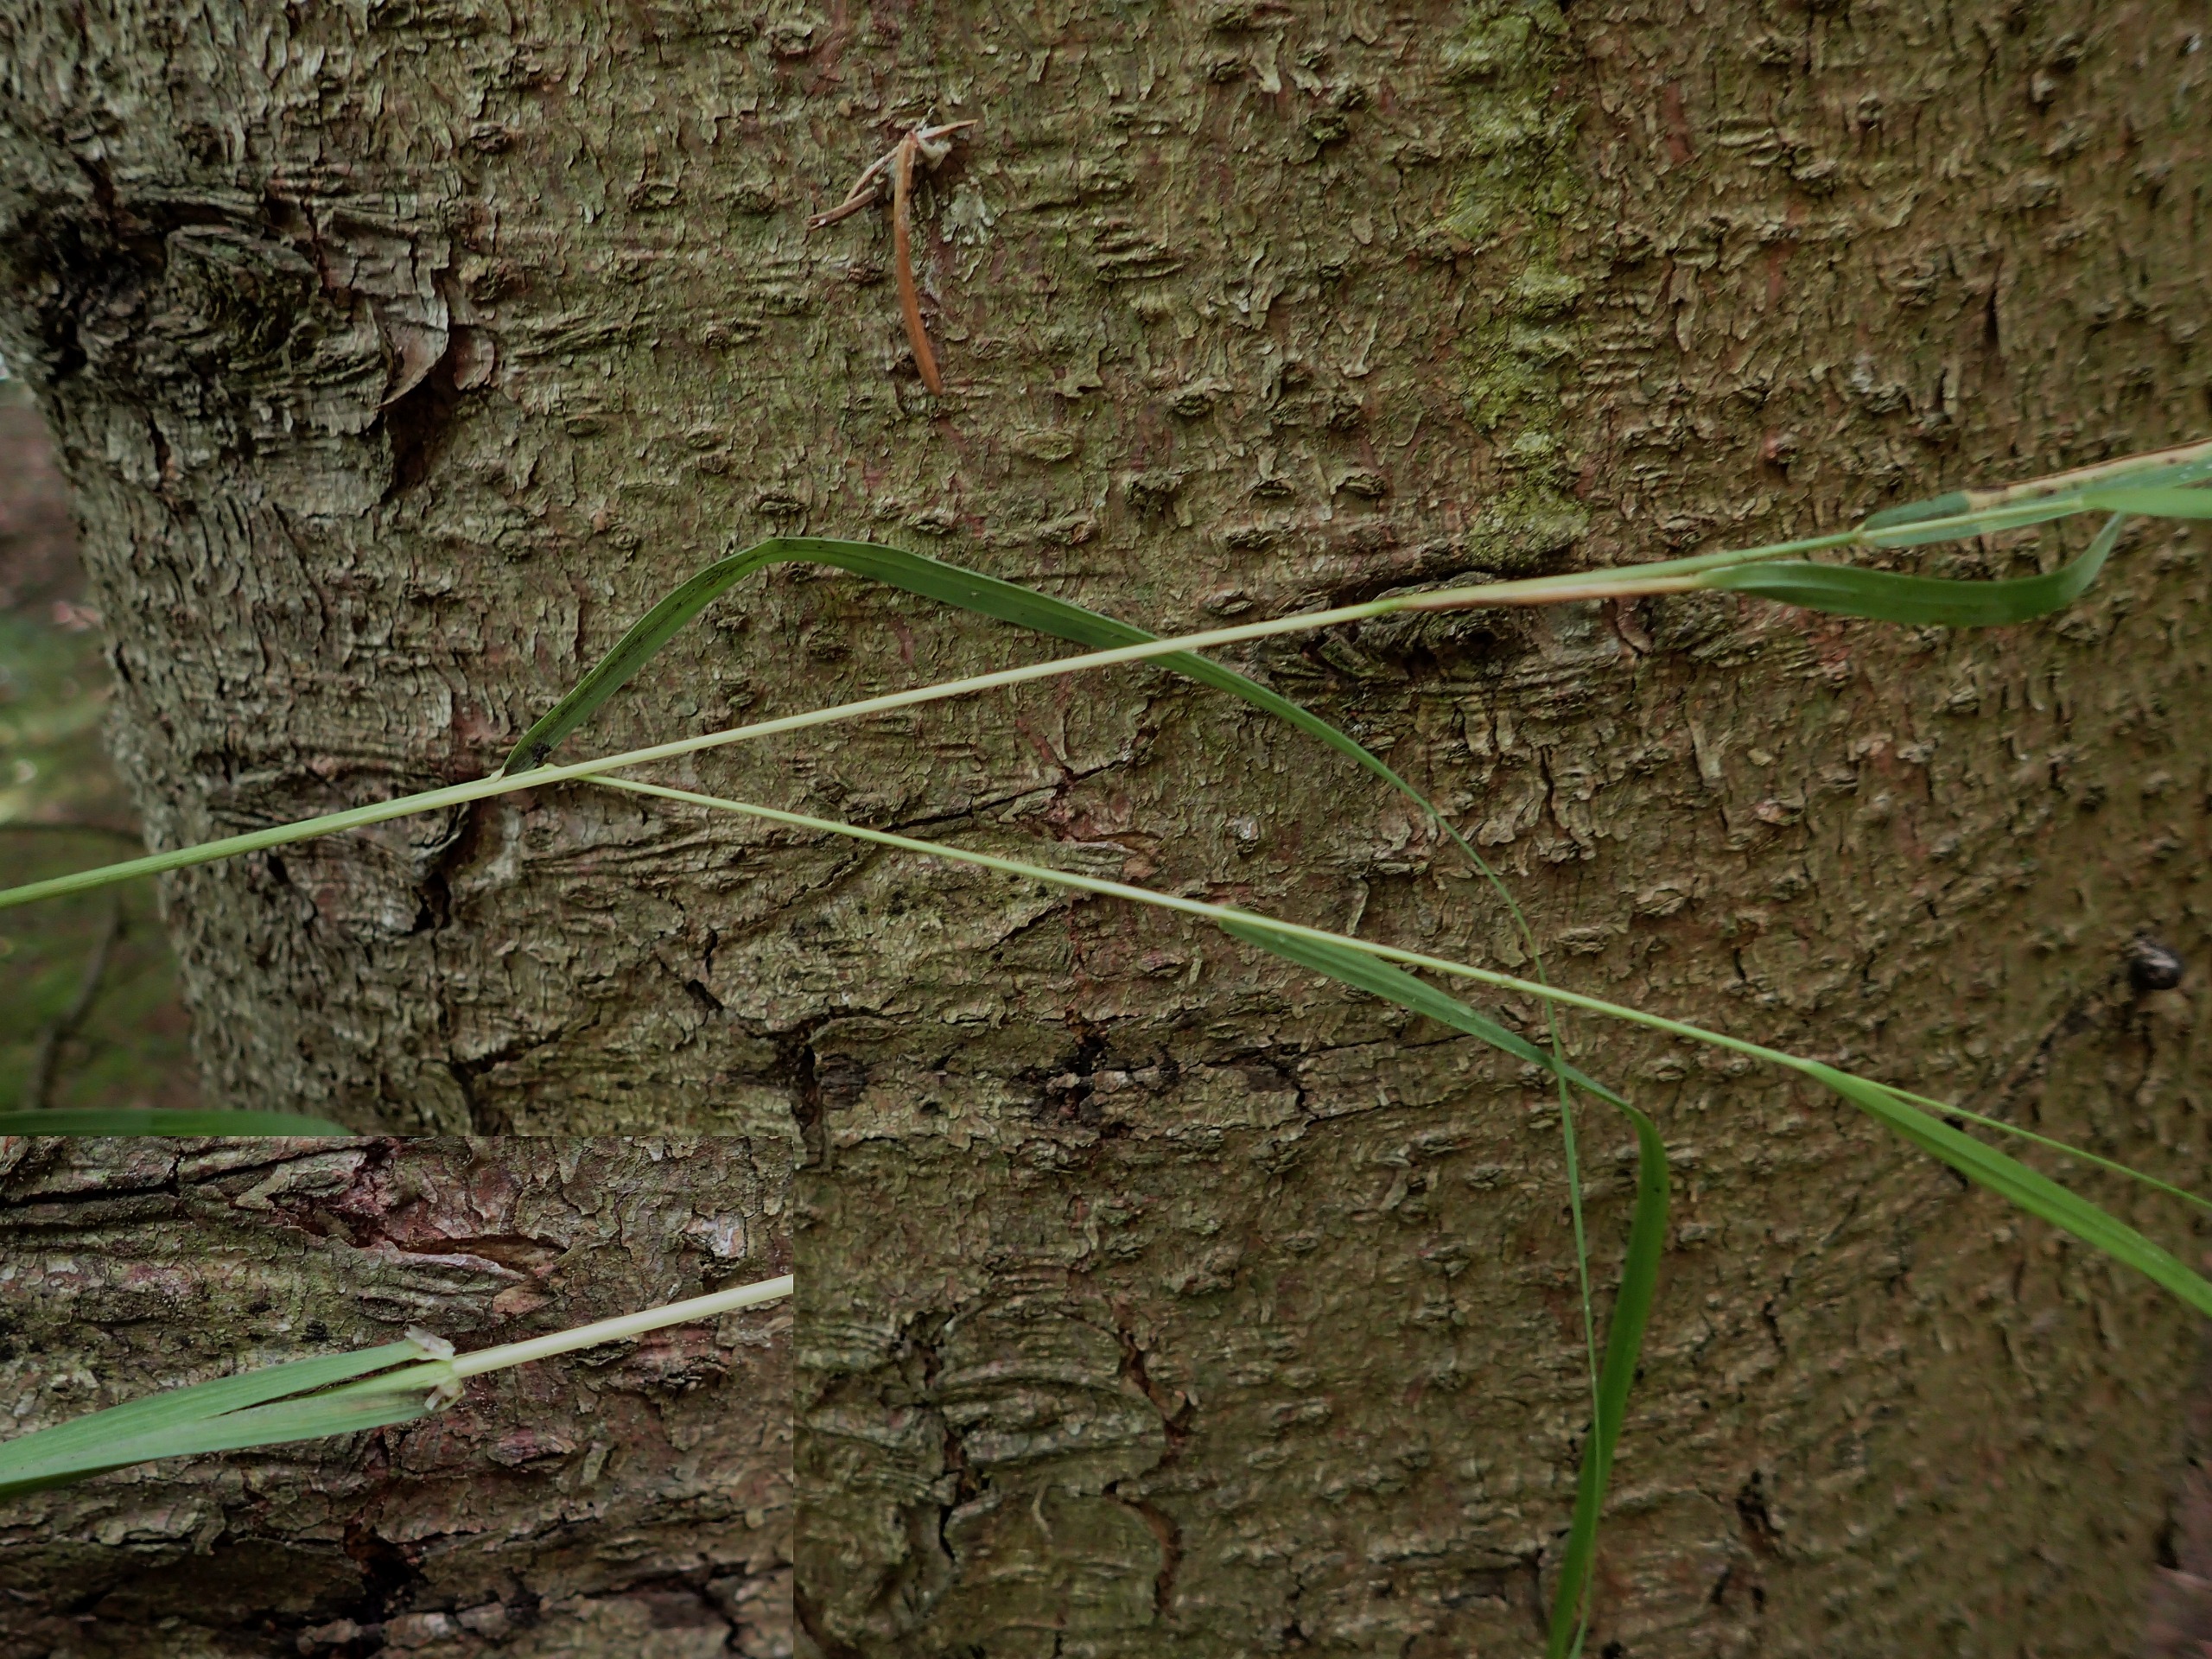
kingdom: Plantae
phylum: Tracheophyta
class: Liliopsida
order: Poales
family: Poaceae
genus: Calamagrostis
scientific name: Calamagrostis canescens
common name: Eng-rørhvene
